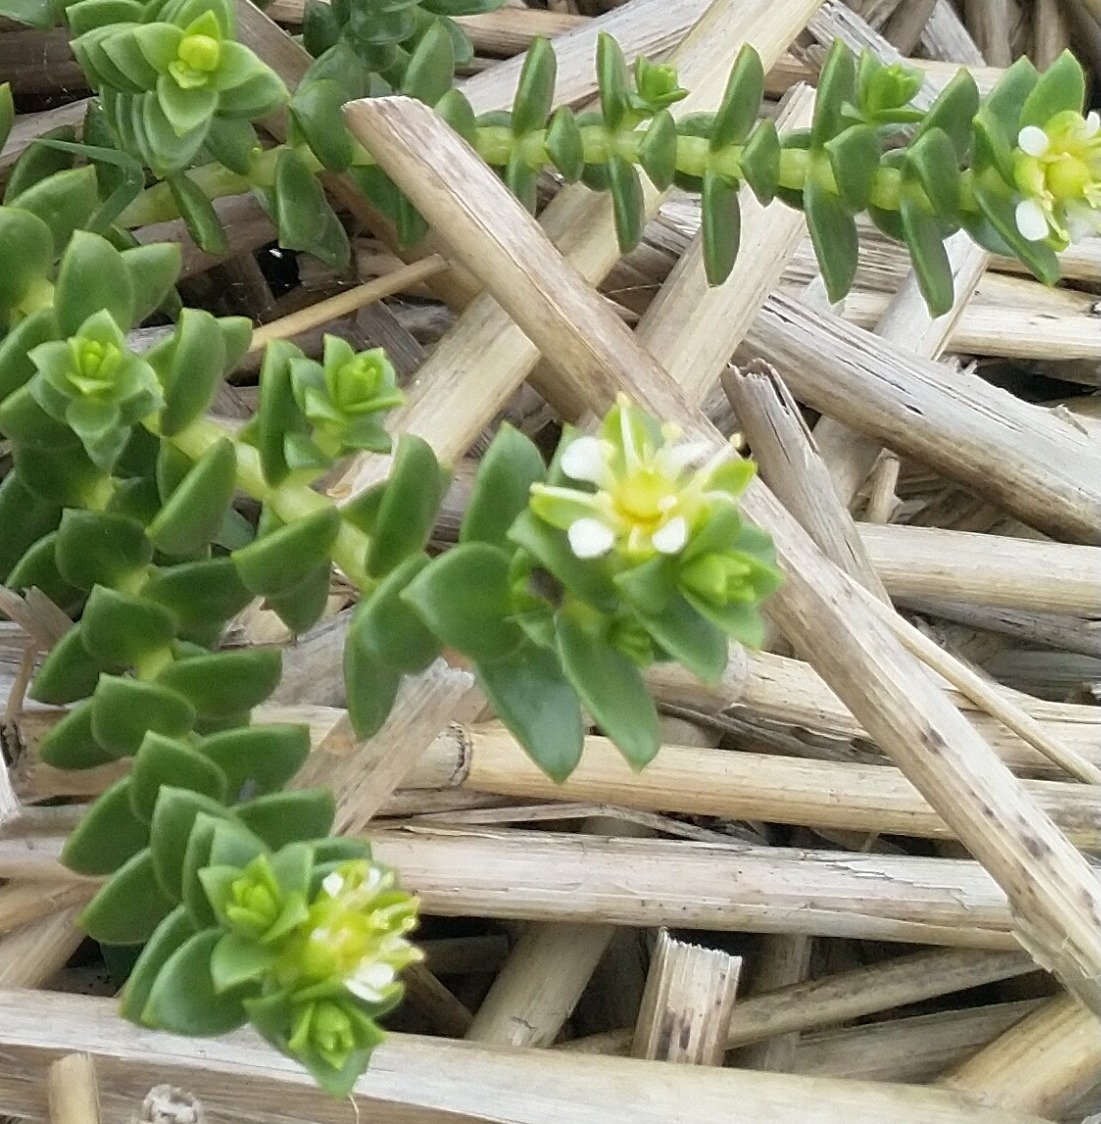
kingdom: Plantae
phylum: Tracheophyta
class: Magnoliopsida
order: Caryophyllales
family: Caryophyllaceae
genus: Honckenya
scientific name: Honckenya peploides
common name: Strandarve
